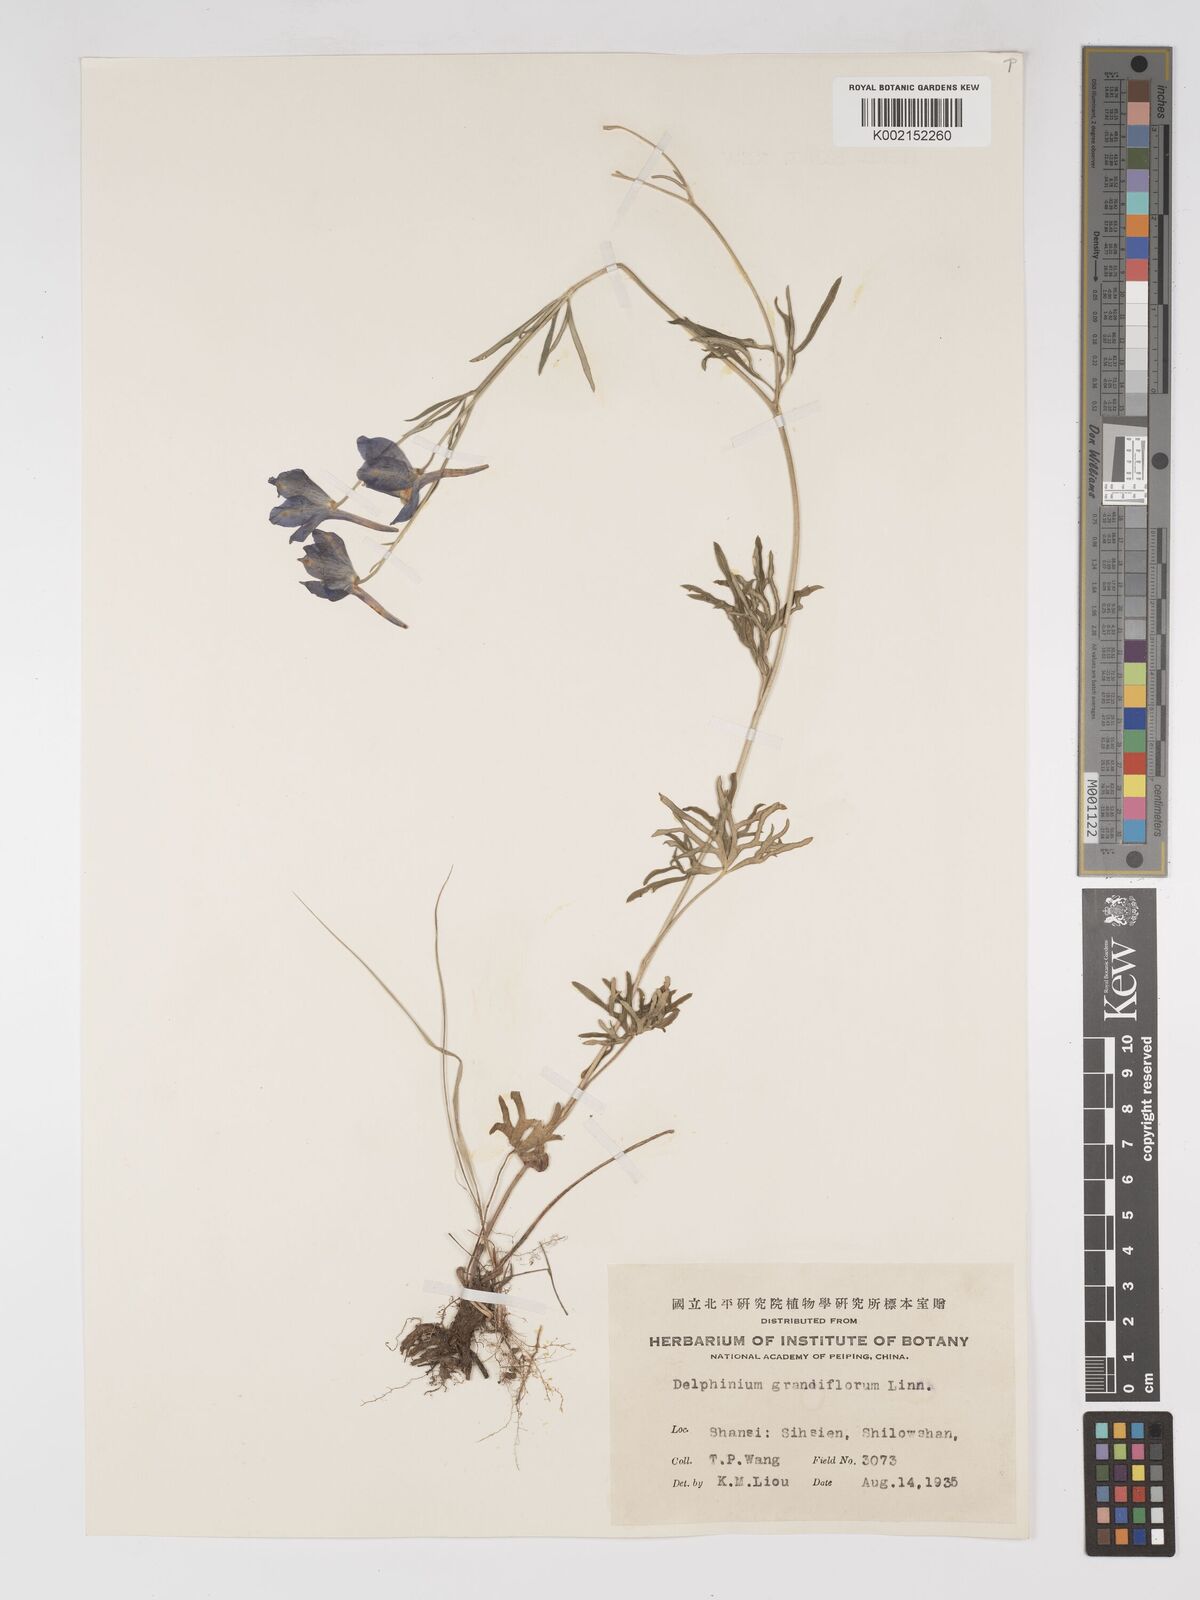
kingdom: Plantae
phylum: Tracheophyta
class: Magnoliopsida
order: Ranunculales
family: Ranunculaceae
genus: Delphinium
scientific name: Delphinium grandiflorum
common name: Siberian larkspur
